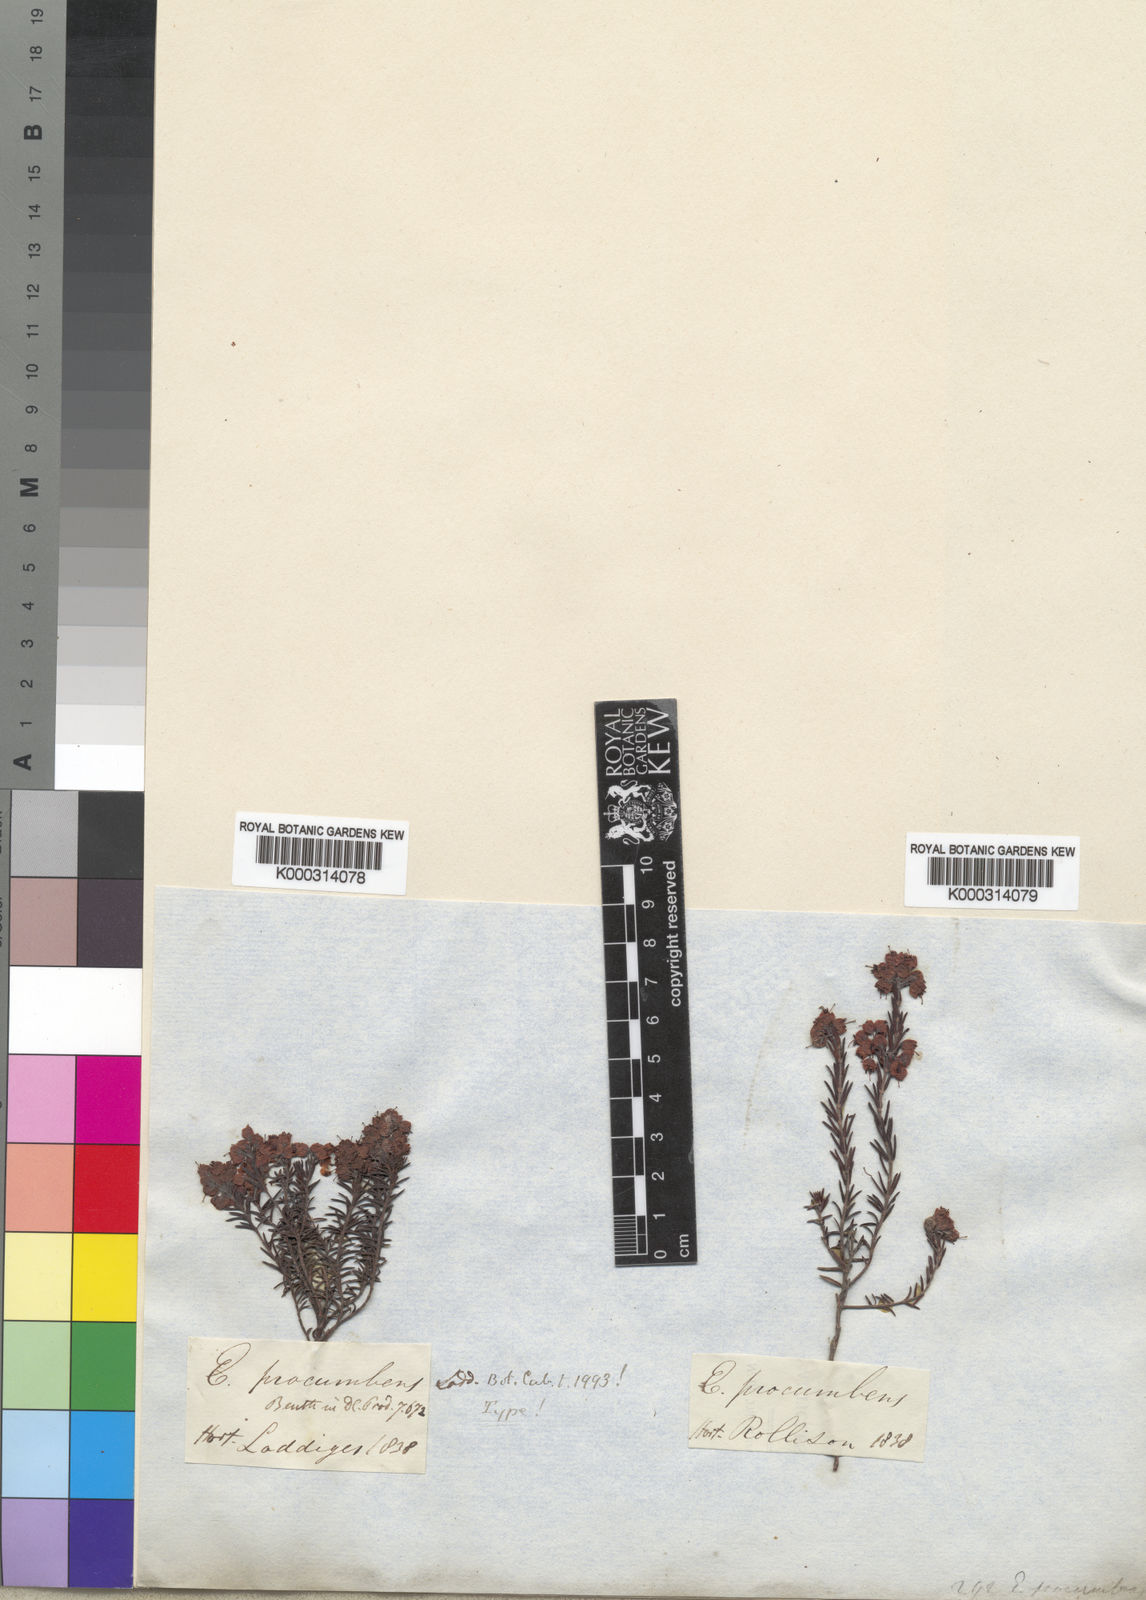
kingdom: Plantae
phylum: Tracheophyta
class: Magnoliopsida
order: Ericales
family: Ericaceae
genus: Erica
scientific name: Erica
